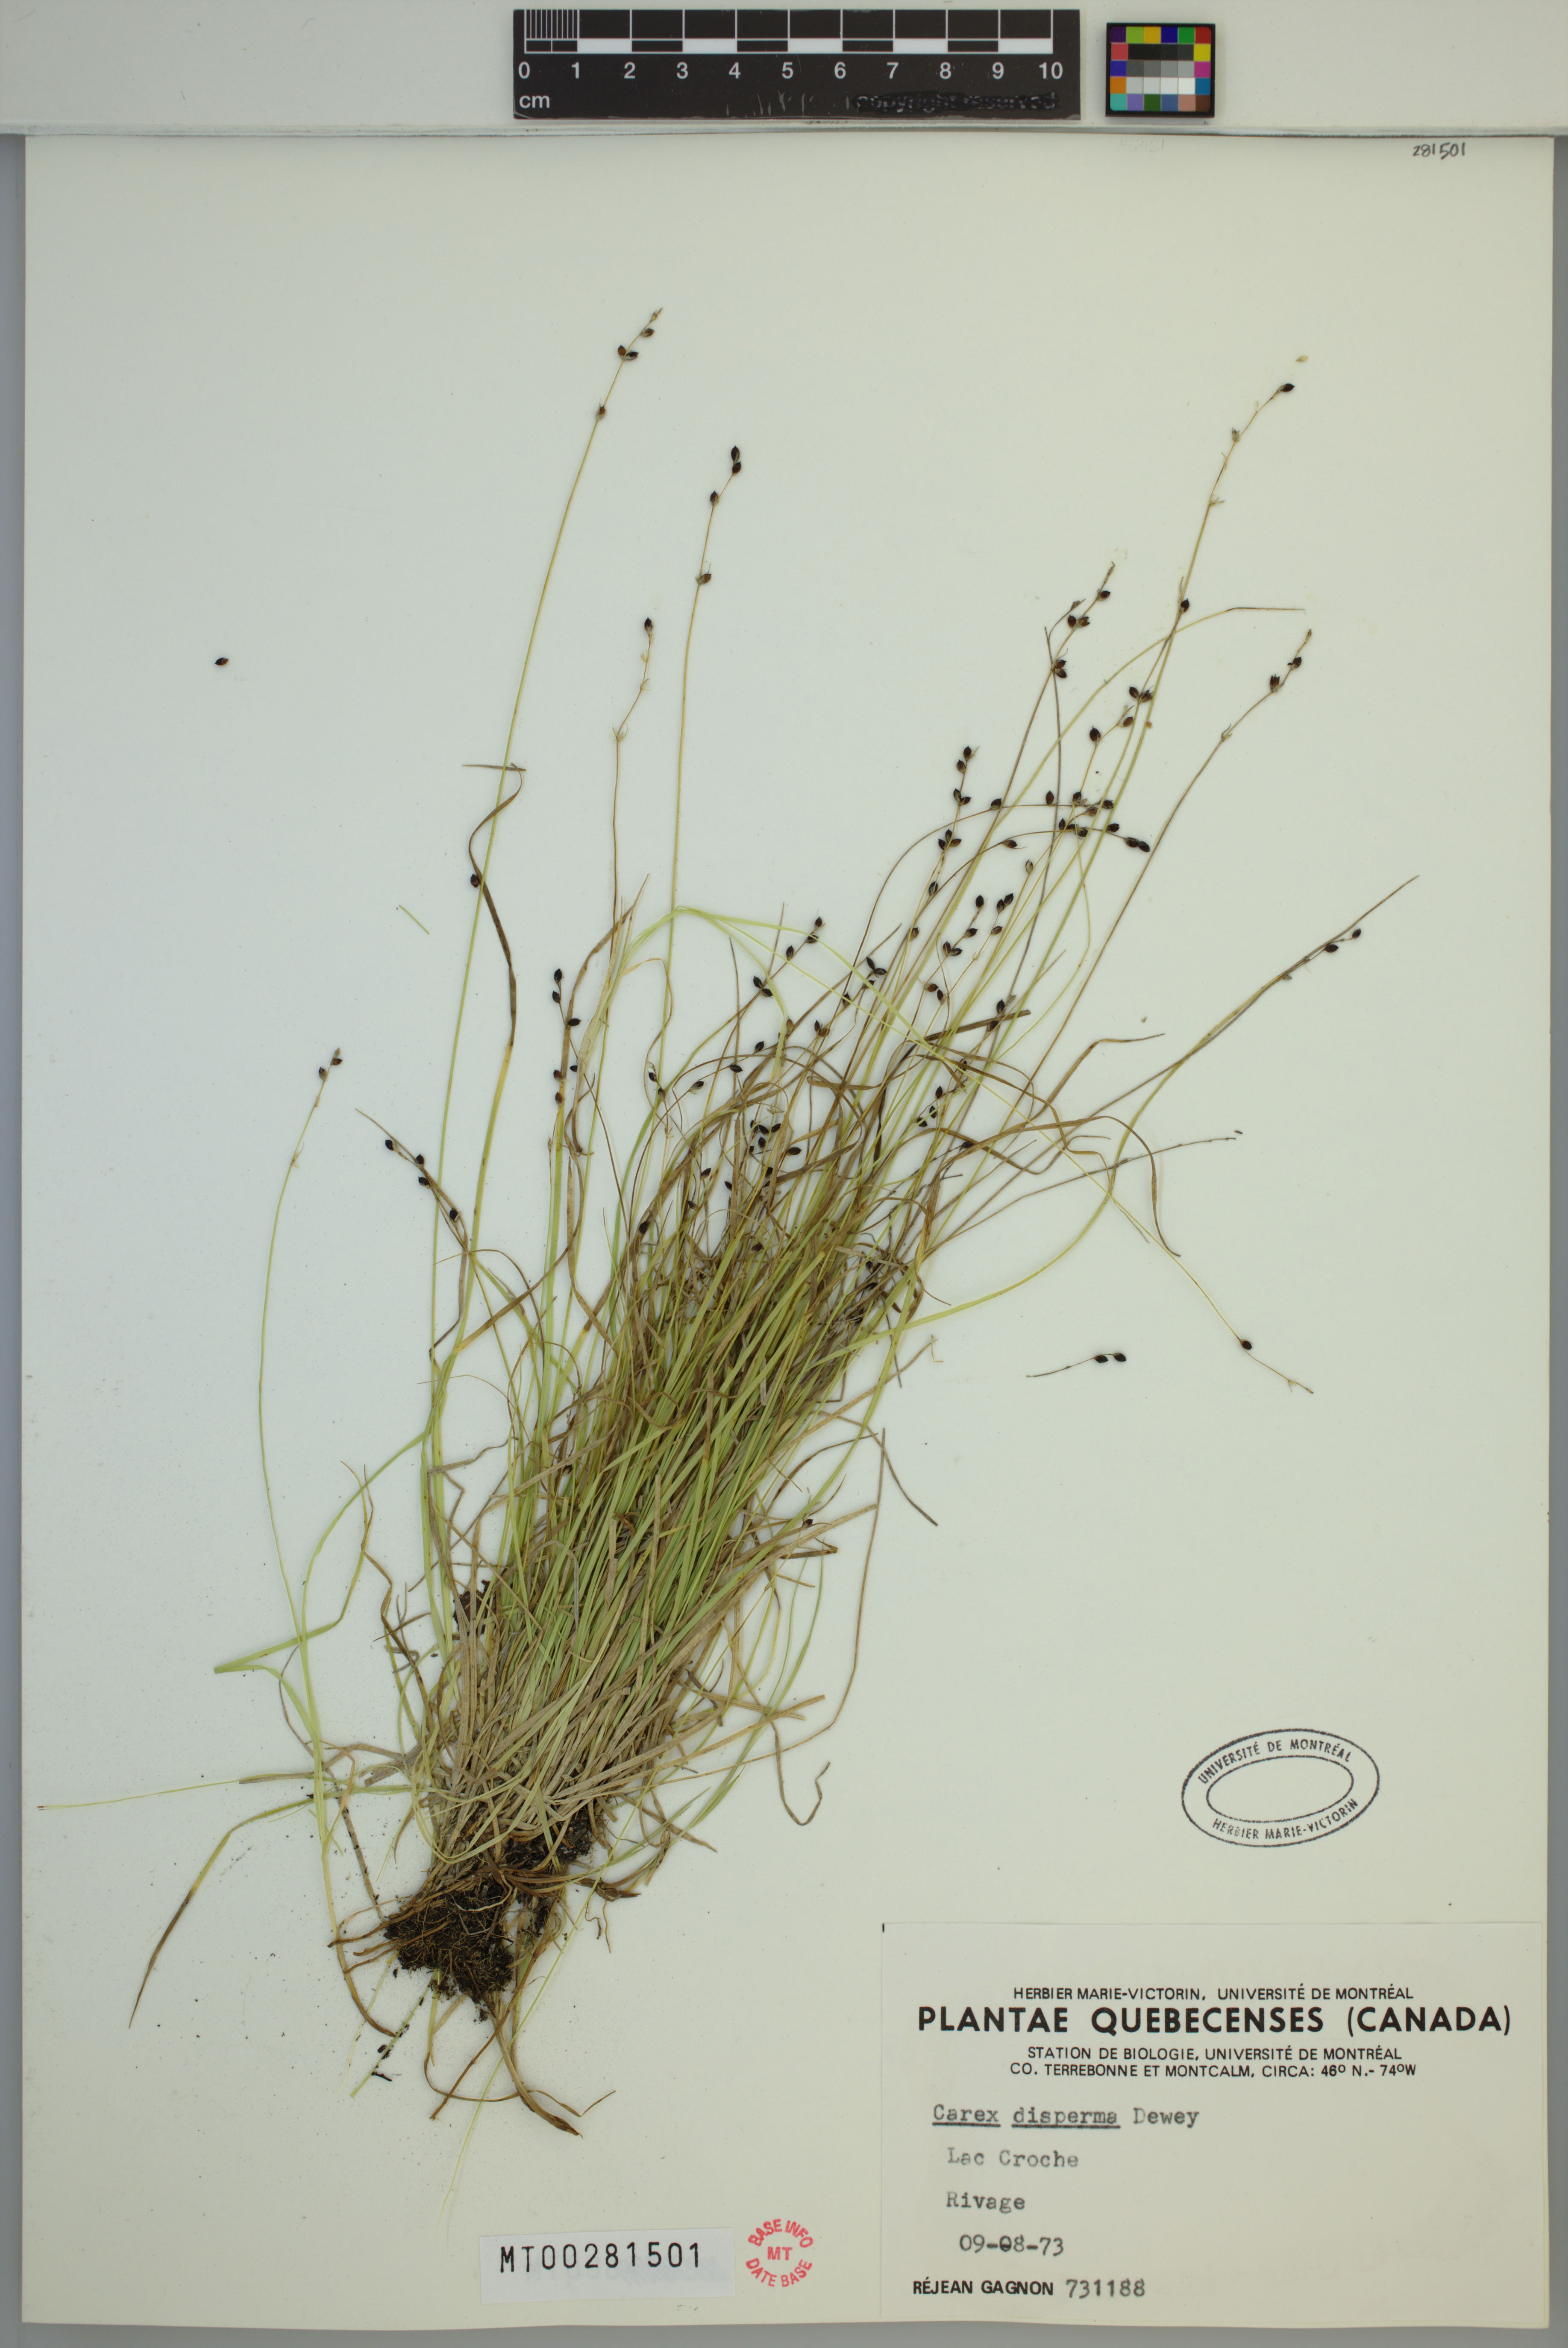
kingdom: Plantae
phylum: Tracheophyta
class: Liliopsida
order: Poales
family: Cyperaceae
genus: Carex
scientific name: Carex disperma
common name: Short-leaved sedge
